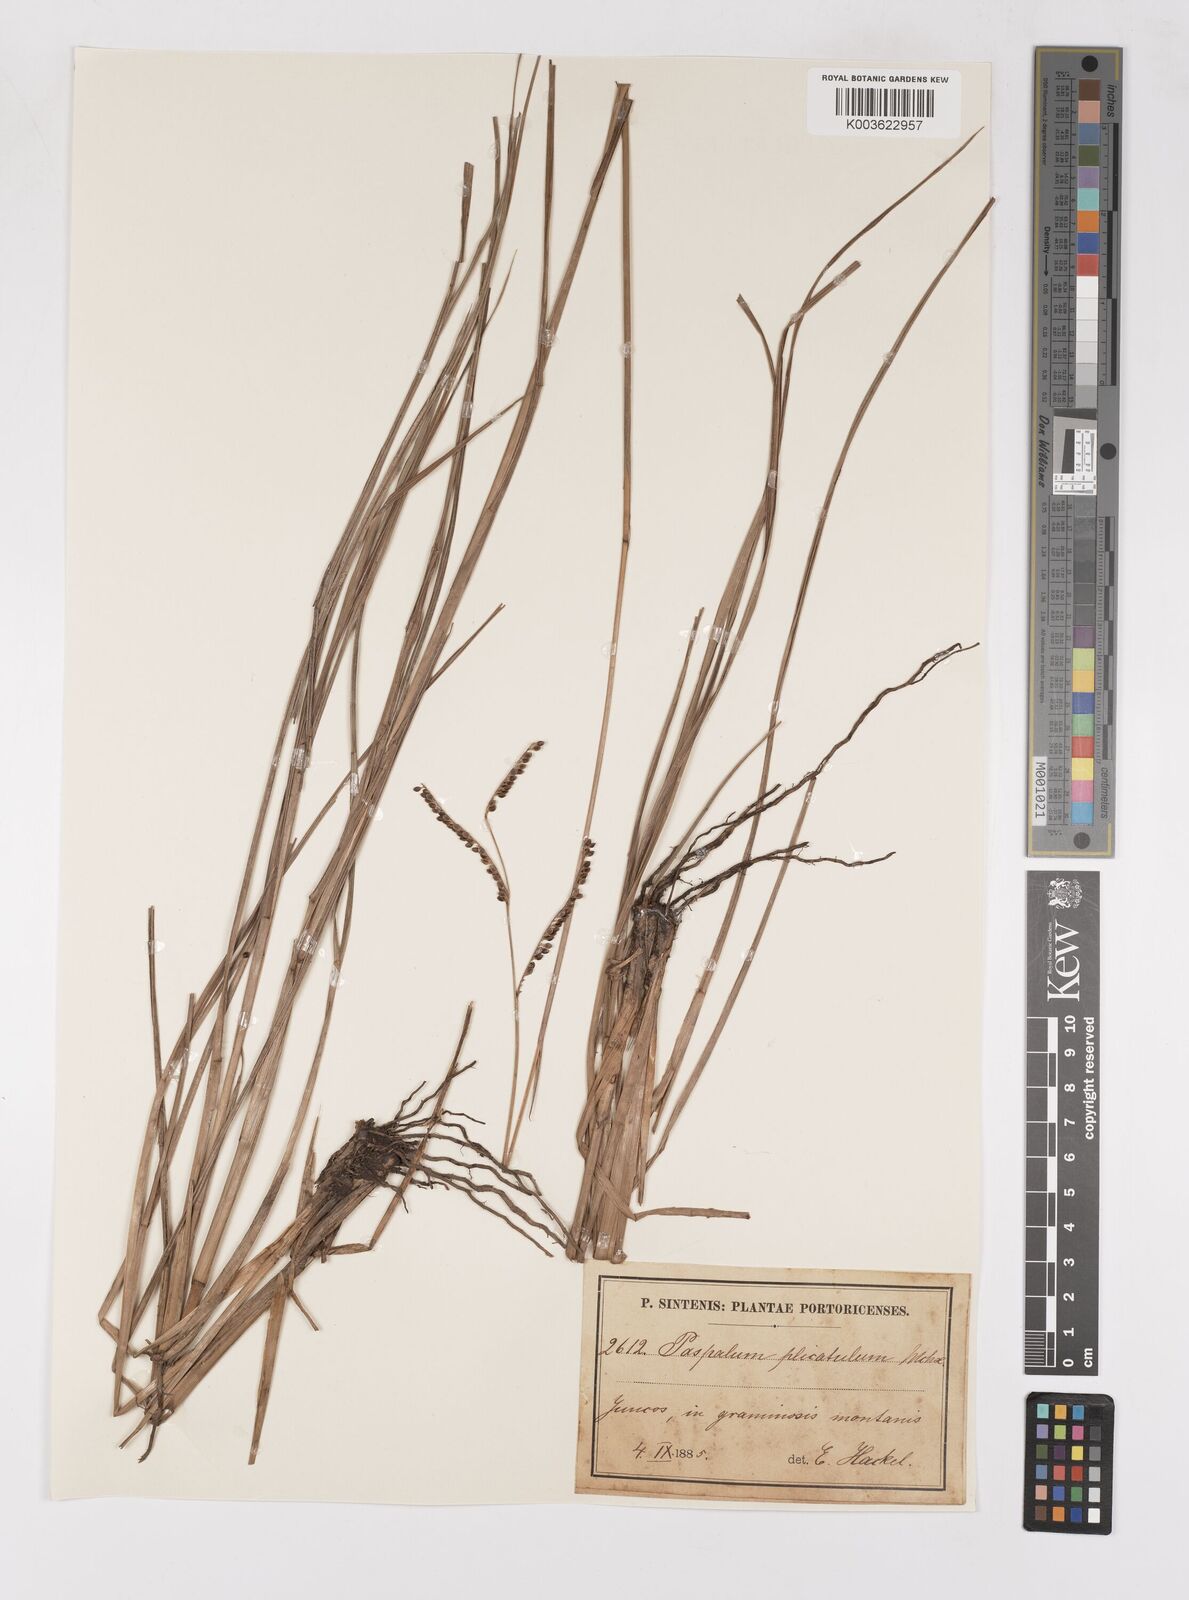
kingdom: Plantae
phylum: Tracheophyta
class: Liliopsida
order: Poales
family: Poaceae
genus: Paspalum
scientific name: Paspalum plicatulum
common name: Top paspalum
